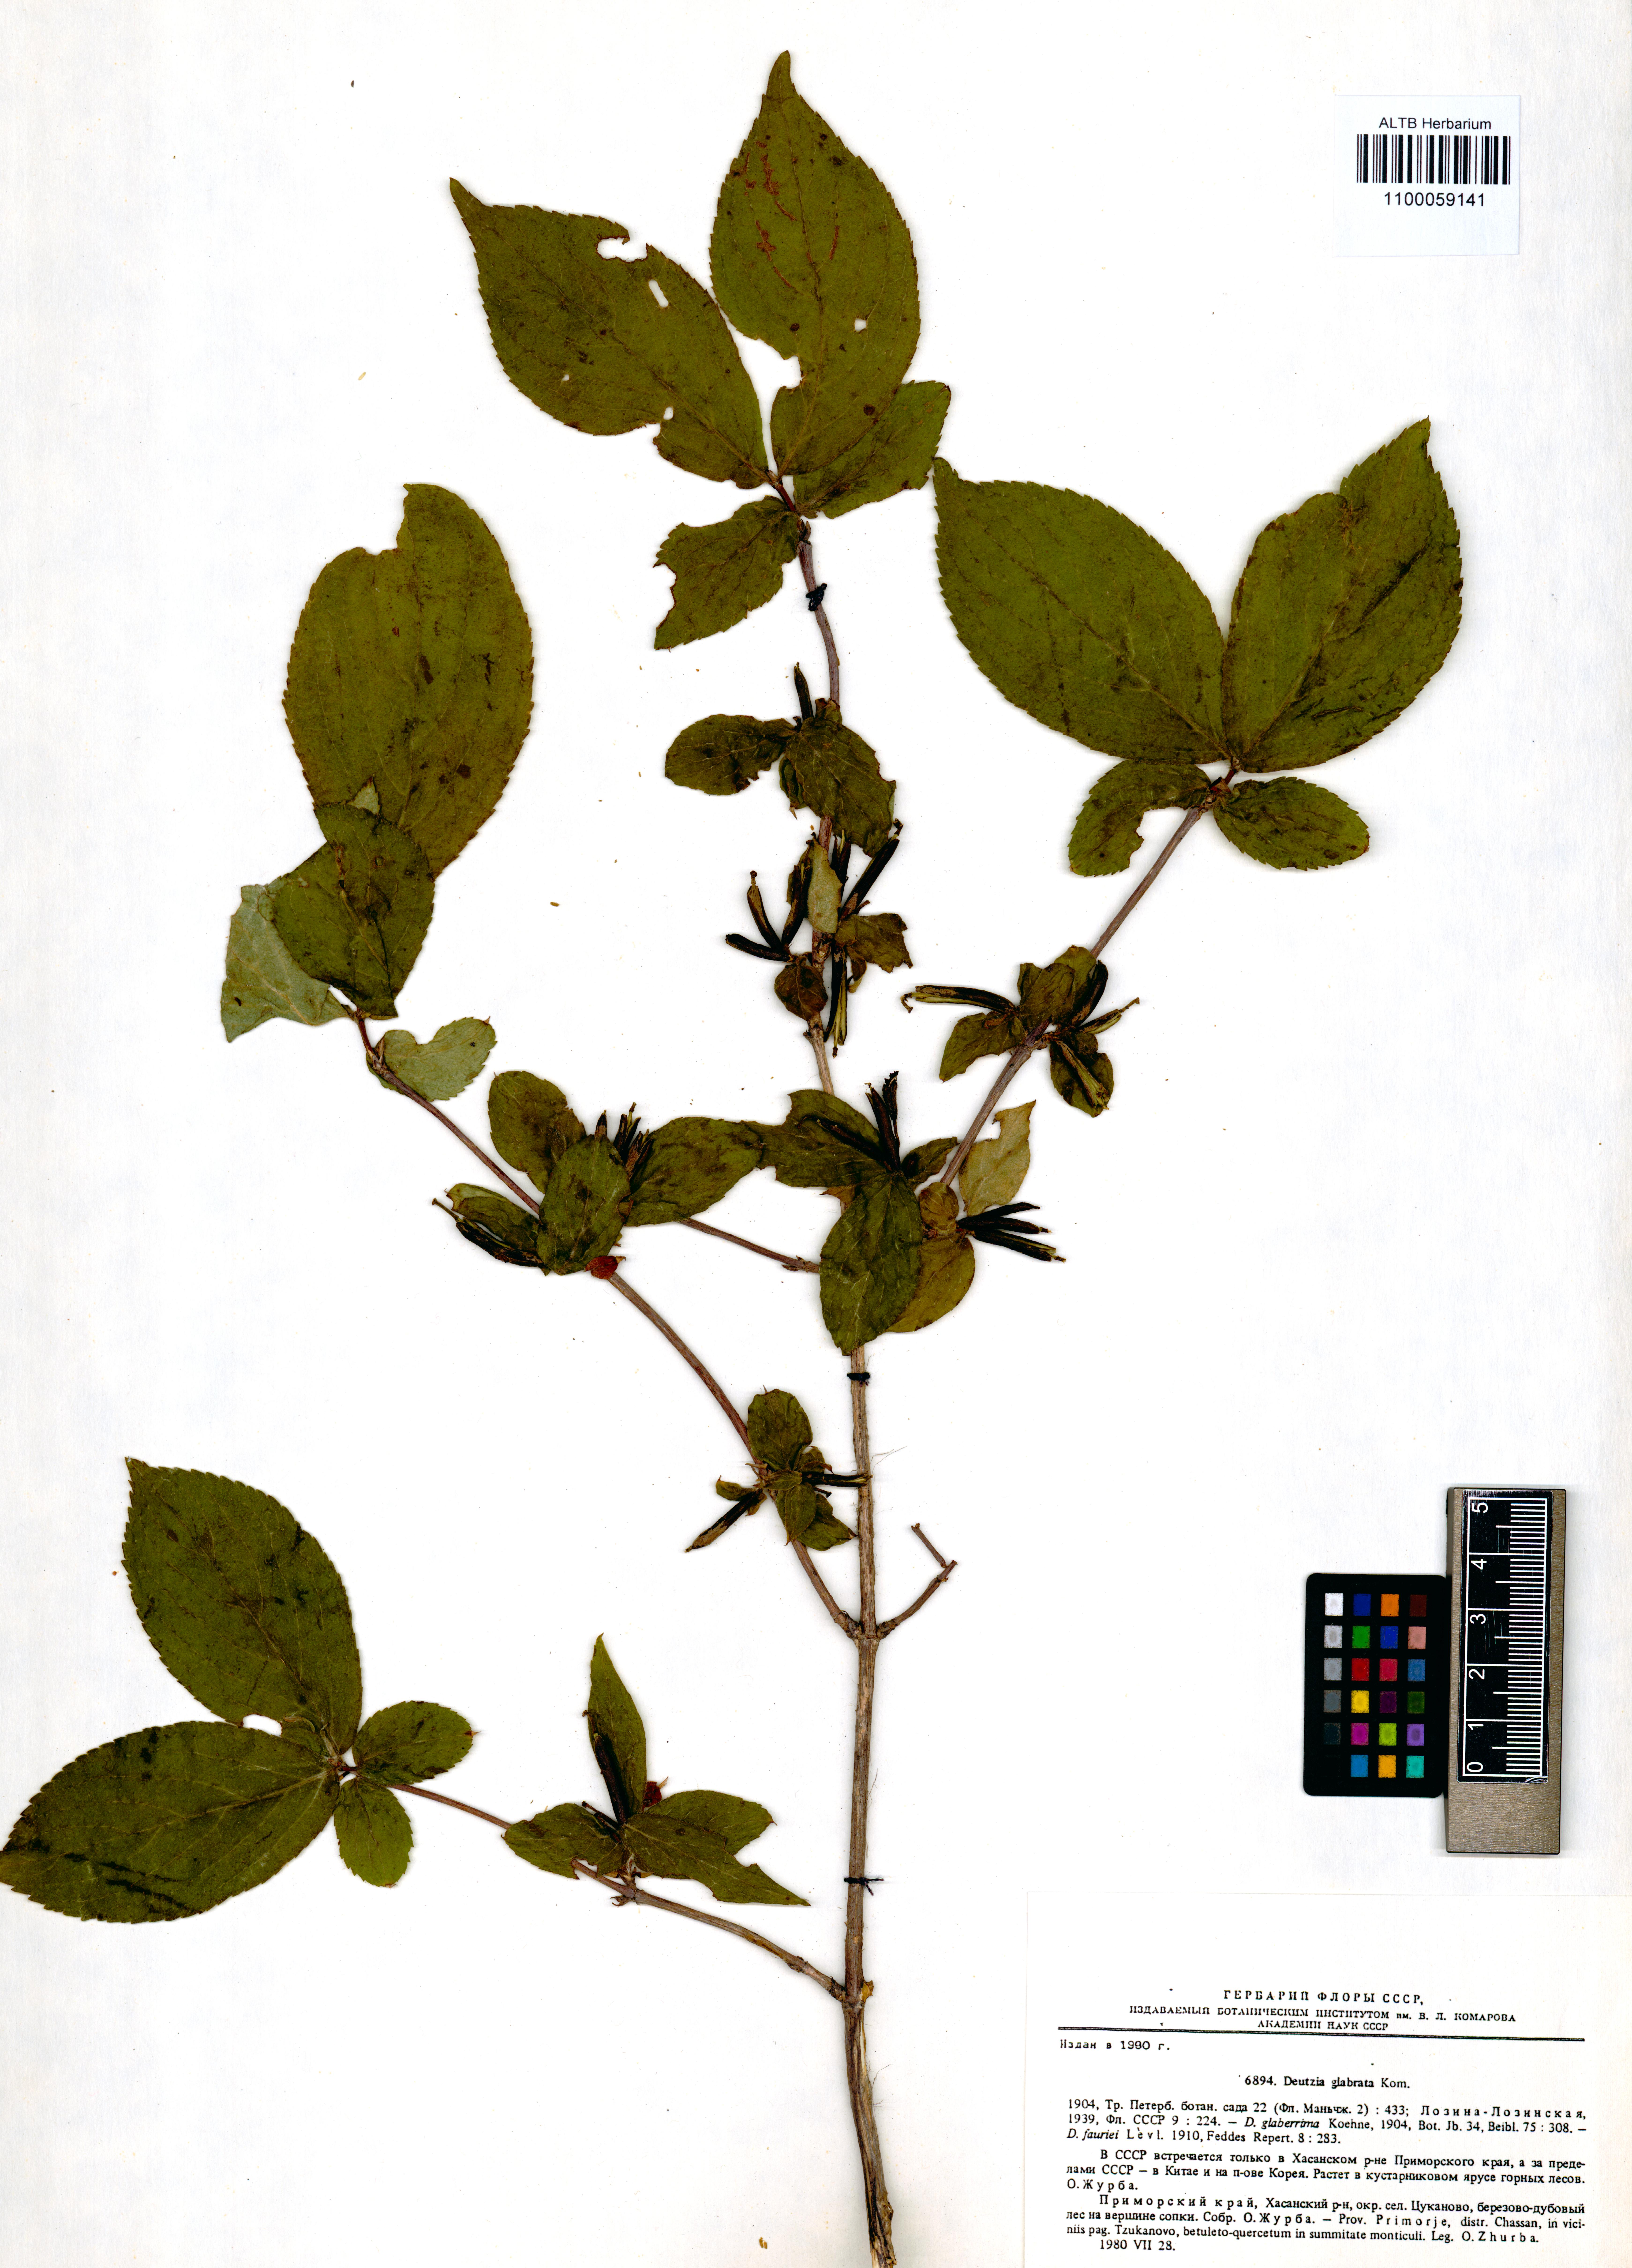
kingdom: Plantae
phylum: Tracheophyta
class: Magnoliopsida
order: Cornales
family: Hydrangeaceae
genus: Deutzia
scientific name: Deutzia glabrata
